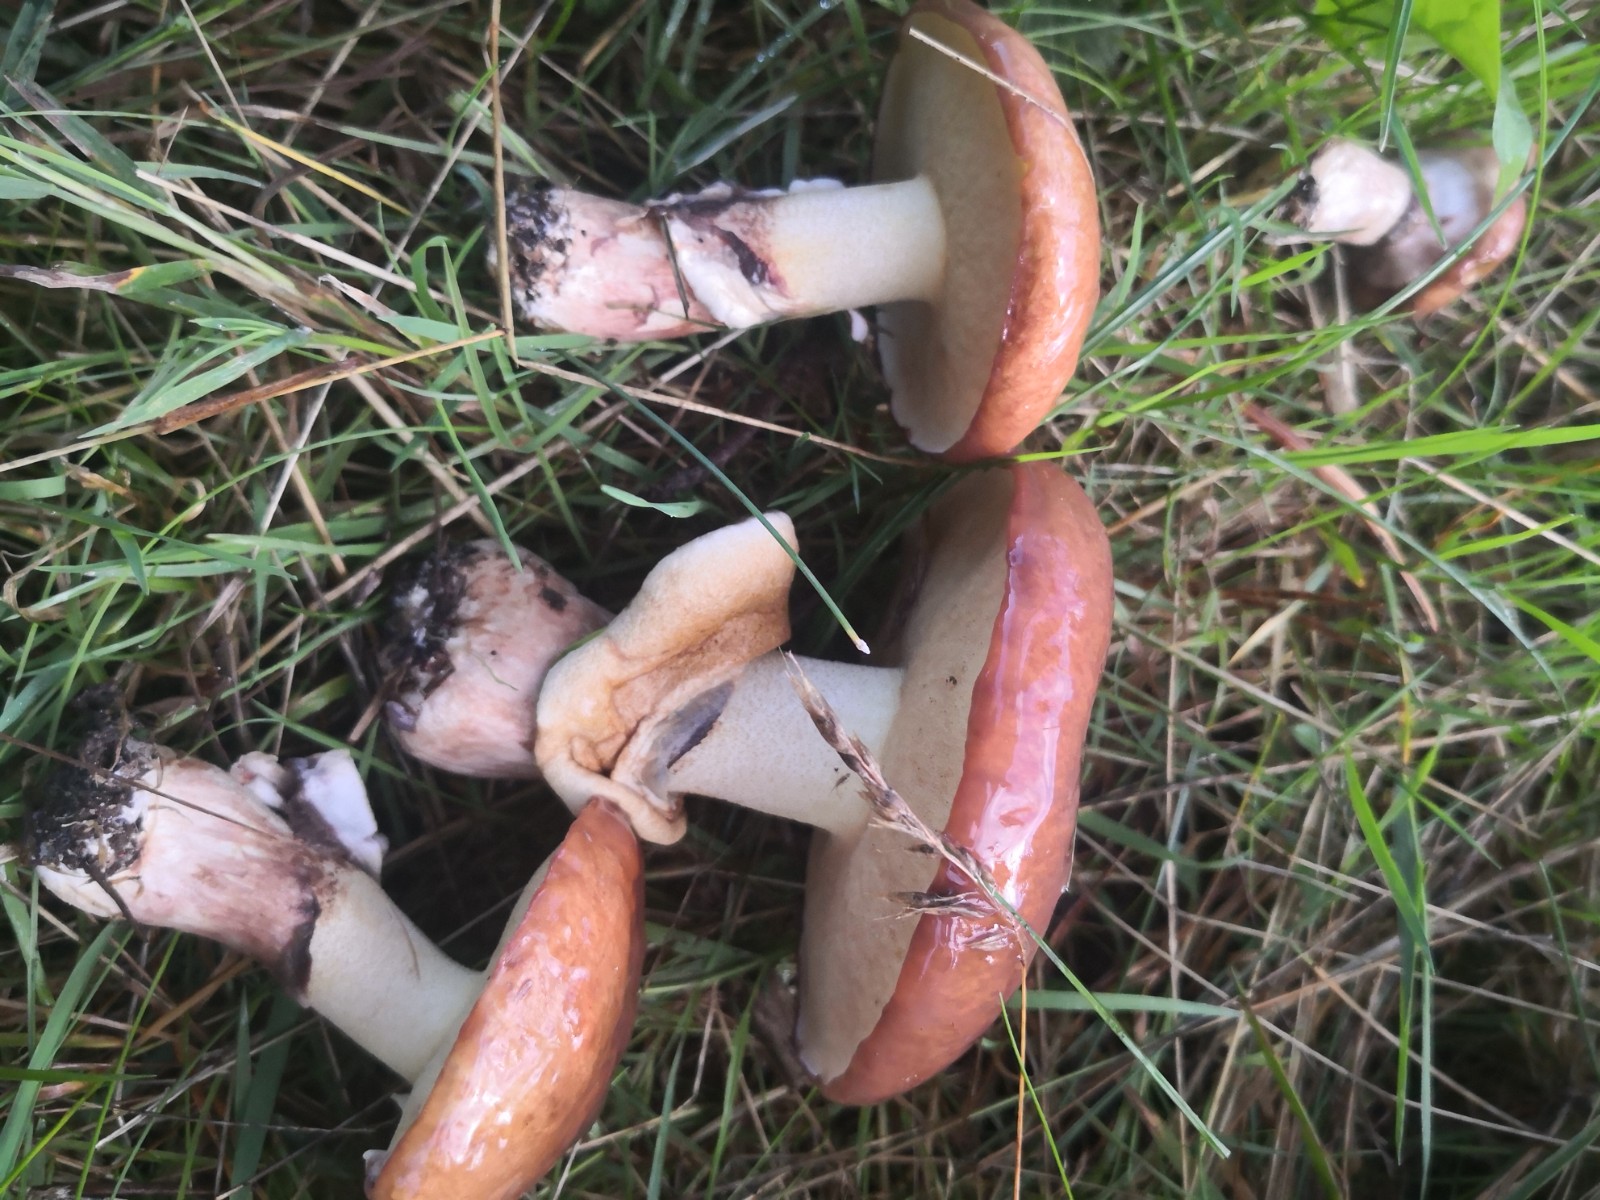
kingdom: Fungi
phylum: Basidiomycota
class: Agaricomycetes
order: Boletales
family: Suillaceae
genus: Suillus
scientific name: Suillus luteus
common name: brungul slimrørhat
